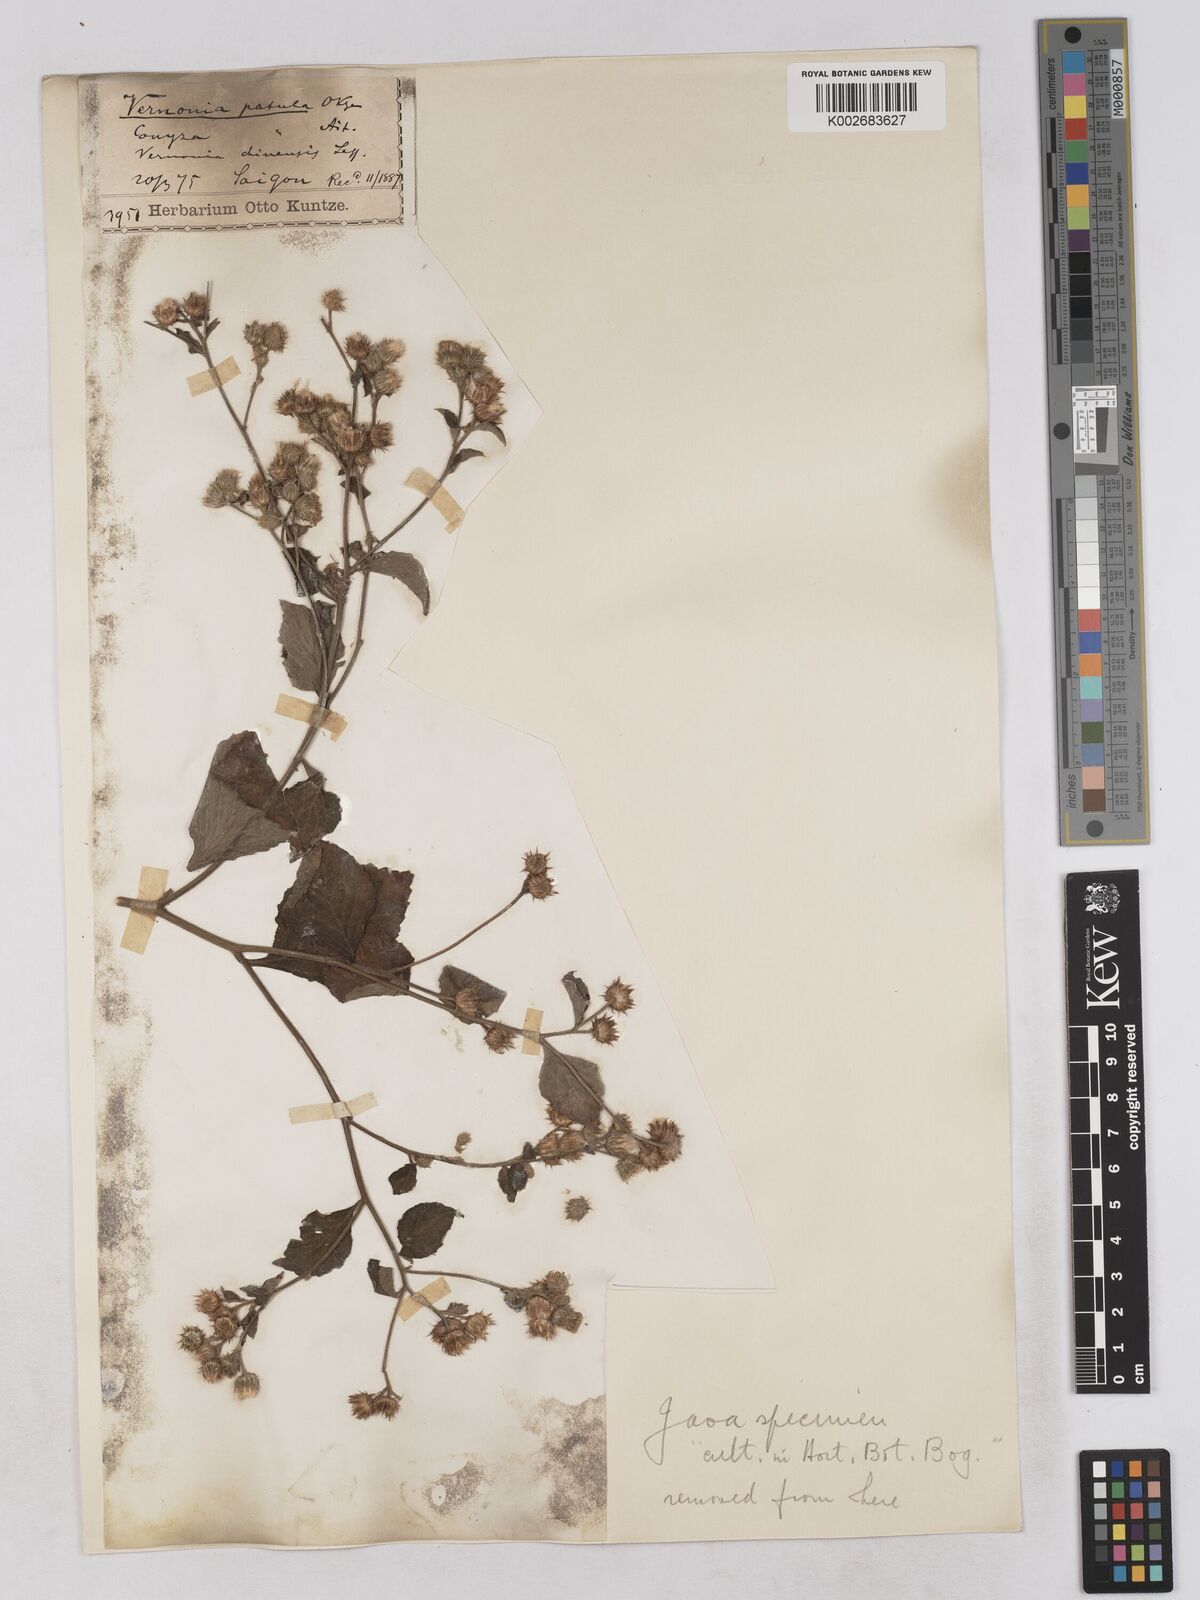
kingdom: Plantae
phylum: Tracheophyta
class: Magnoliopsida
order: Asterales
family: Asteraceae
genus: Cyanthillium
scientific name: Cyanthillium patulum
